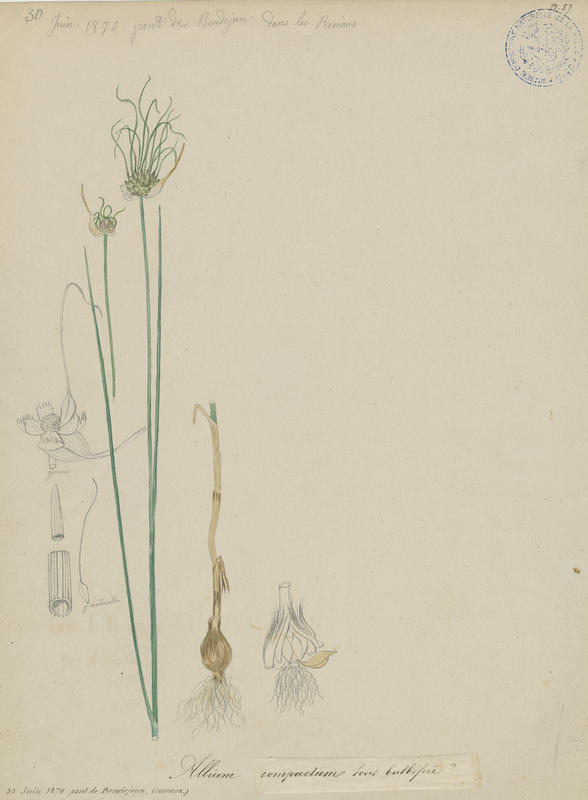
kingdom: Plantae
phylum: Tracheophyta
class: Liliopsida
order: Asparagales
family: Amaryllidaceae
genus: Allium
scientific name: Allium vineale
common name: Crow garlic
